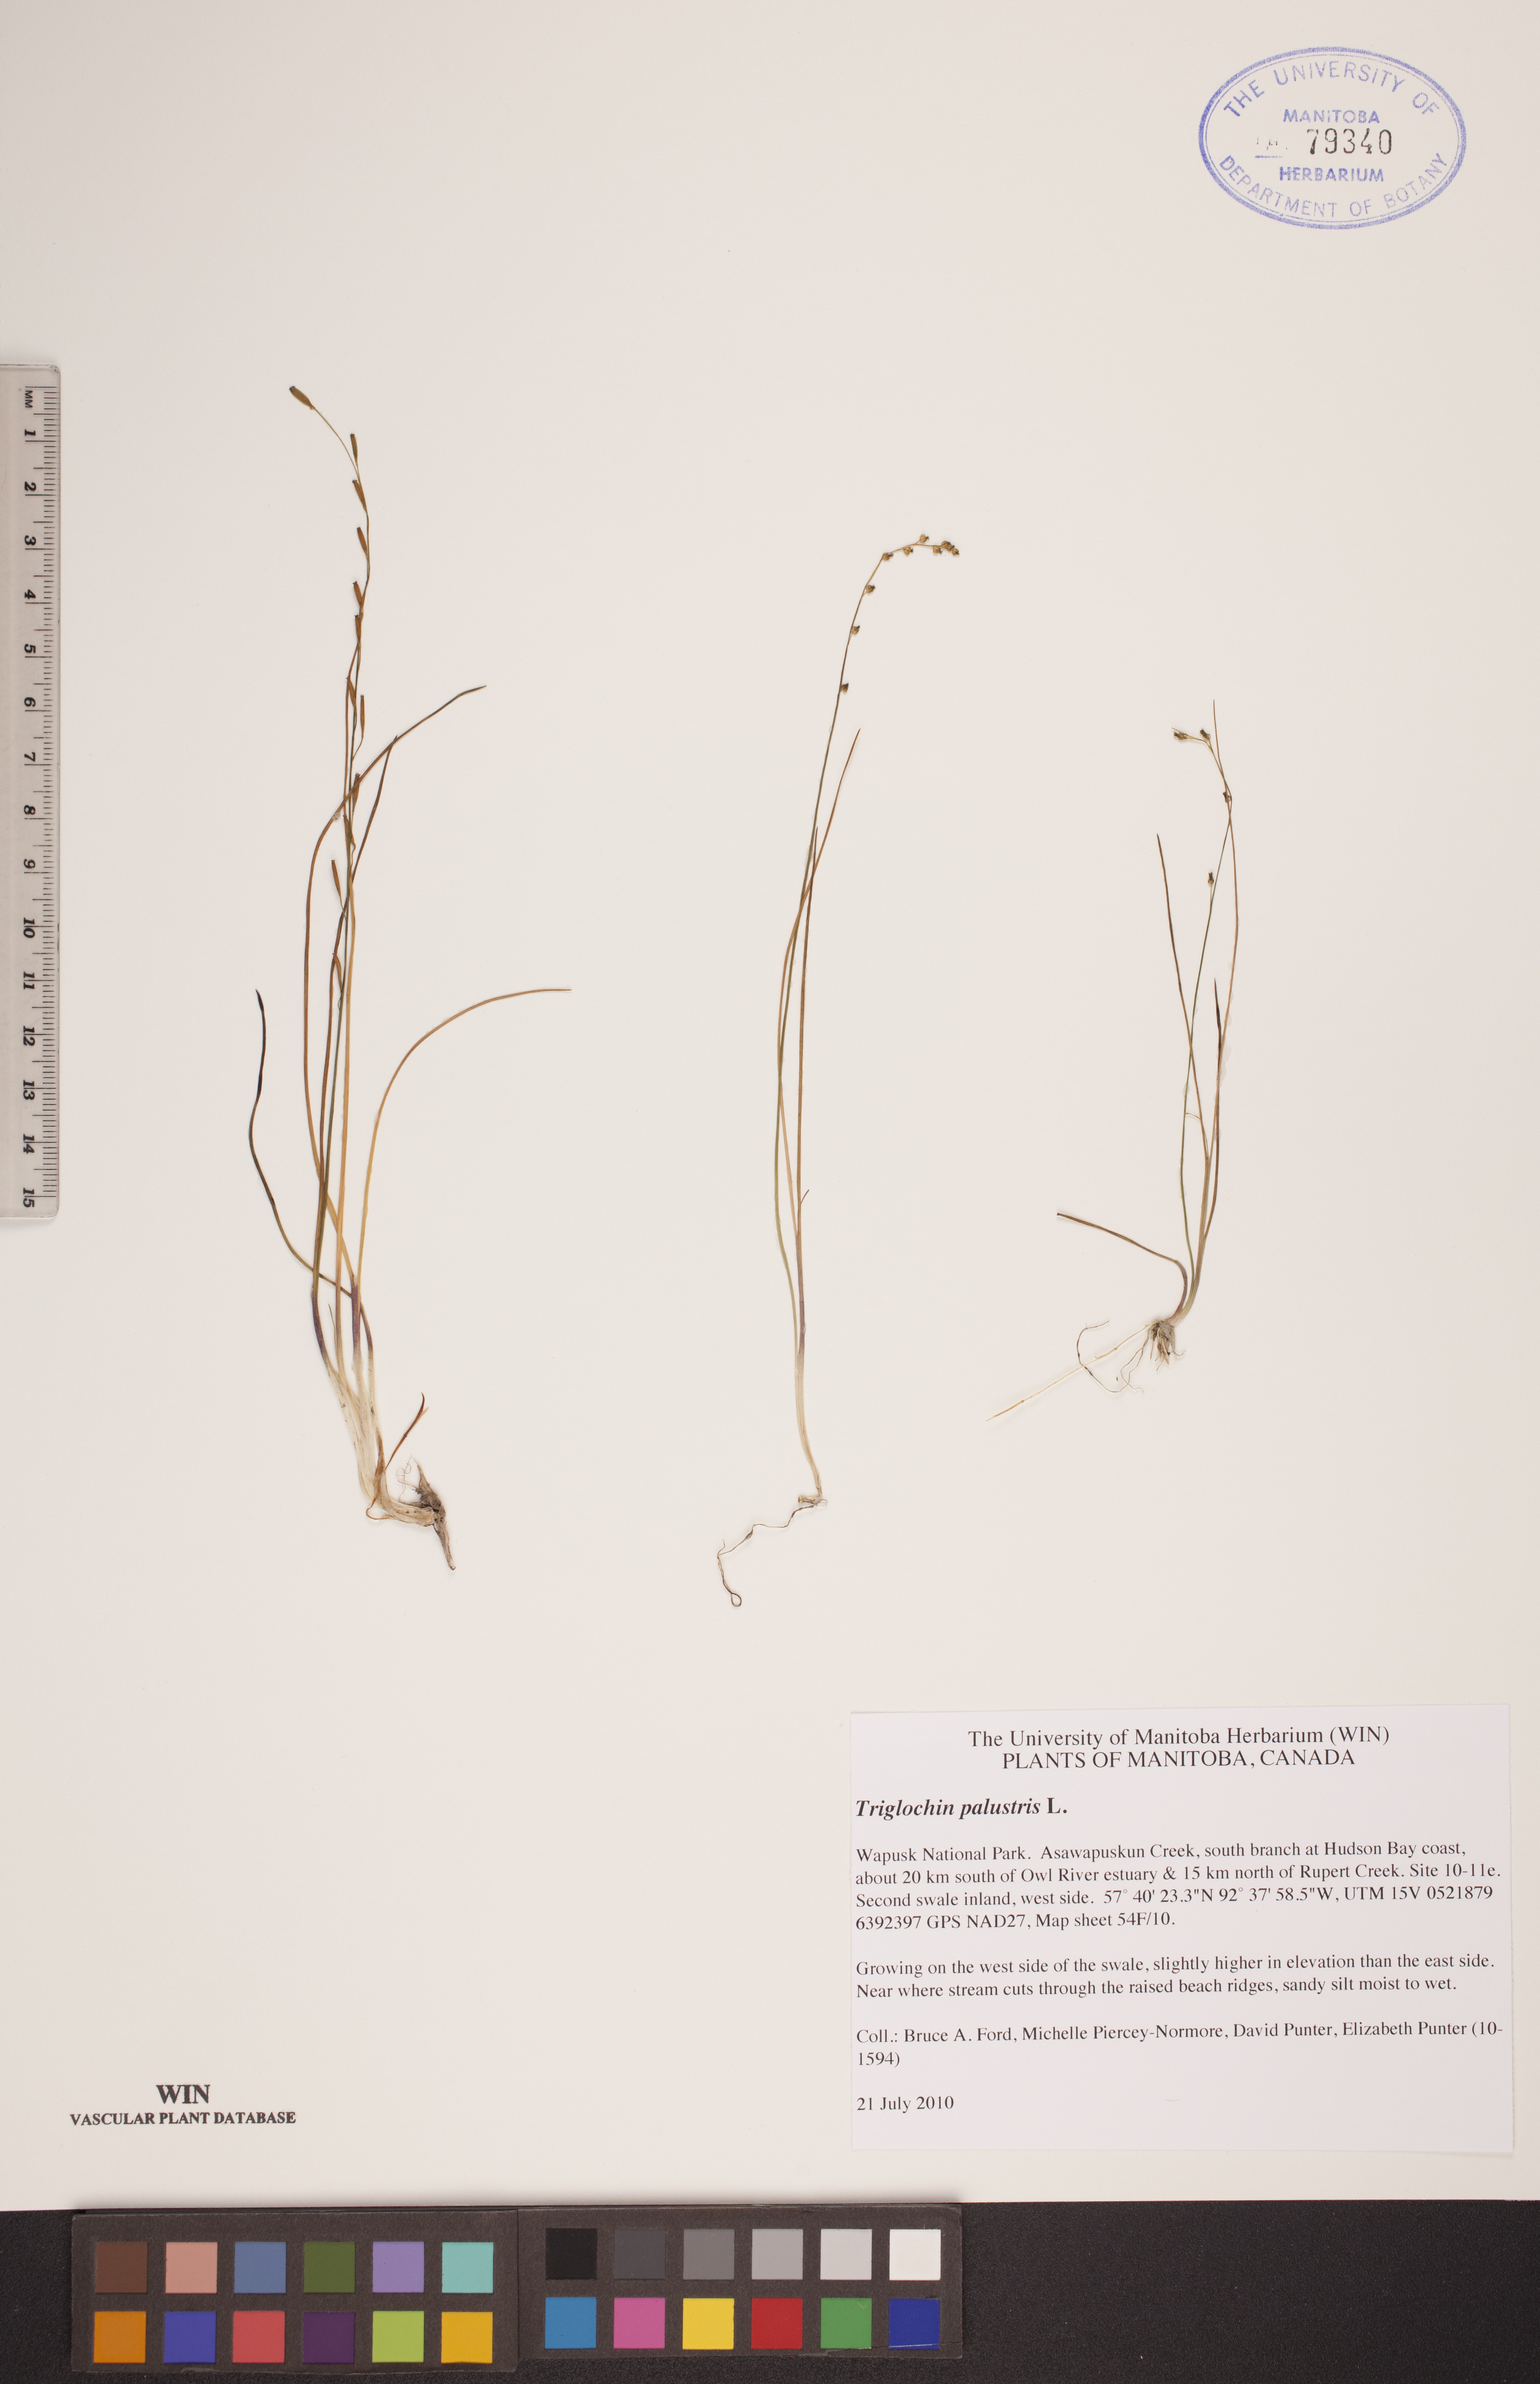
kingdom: Plantae
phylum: Tracheophyta
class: Liliopsida
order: Alismatales
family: Juncaginaceae
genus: Triglochin
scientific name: Triglochin palustris
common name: Marsh arrowgrass
